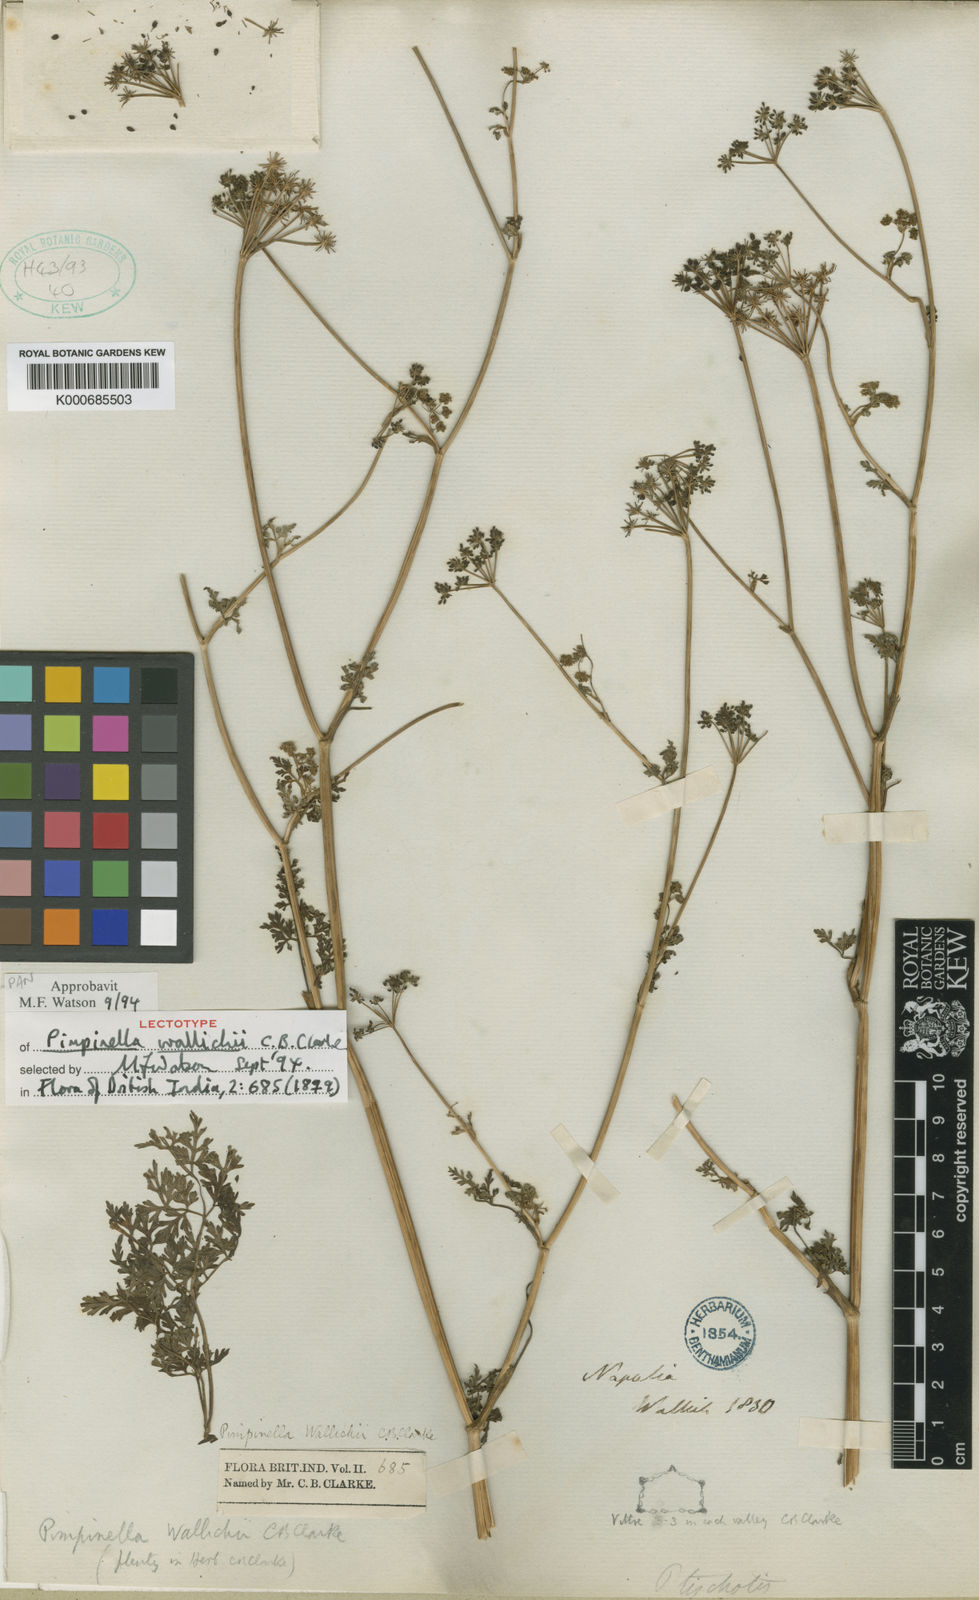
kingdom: Plantae
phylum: Tracheophyta
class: Magnoliopsida
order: Apiales
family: Apiaceae
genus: Pimpinella
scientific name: Pimpinella wallichii
